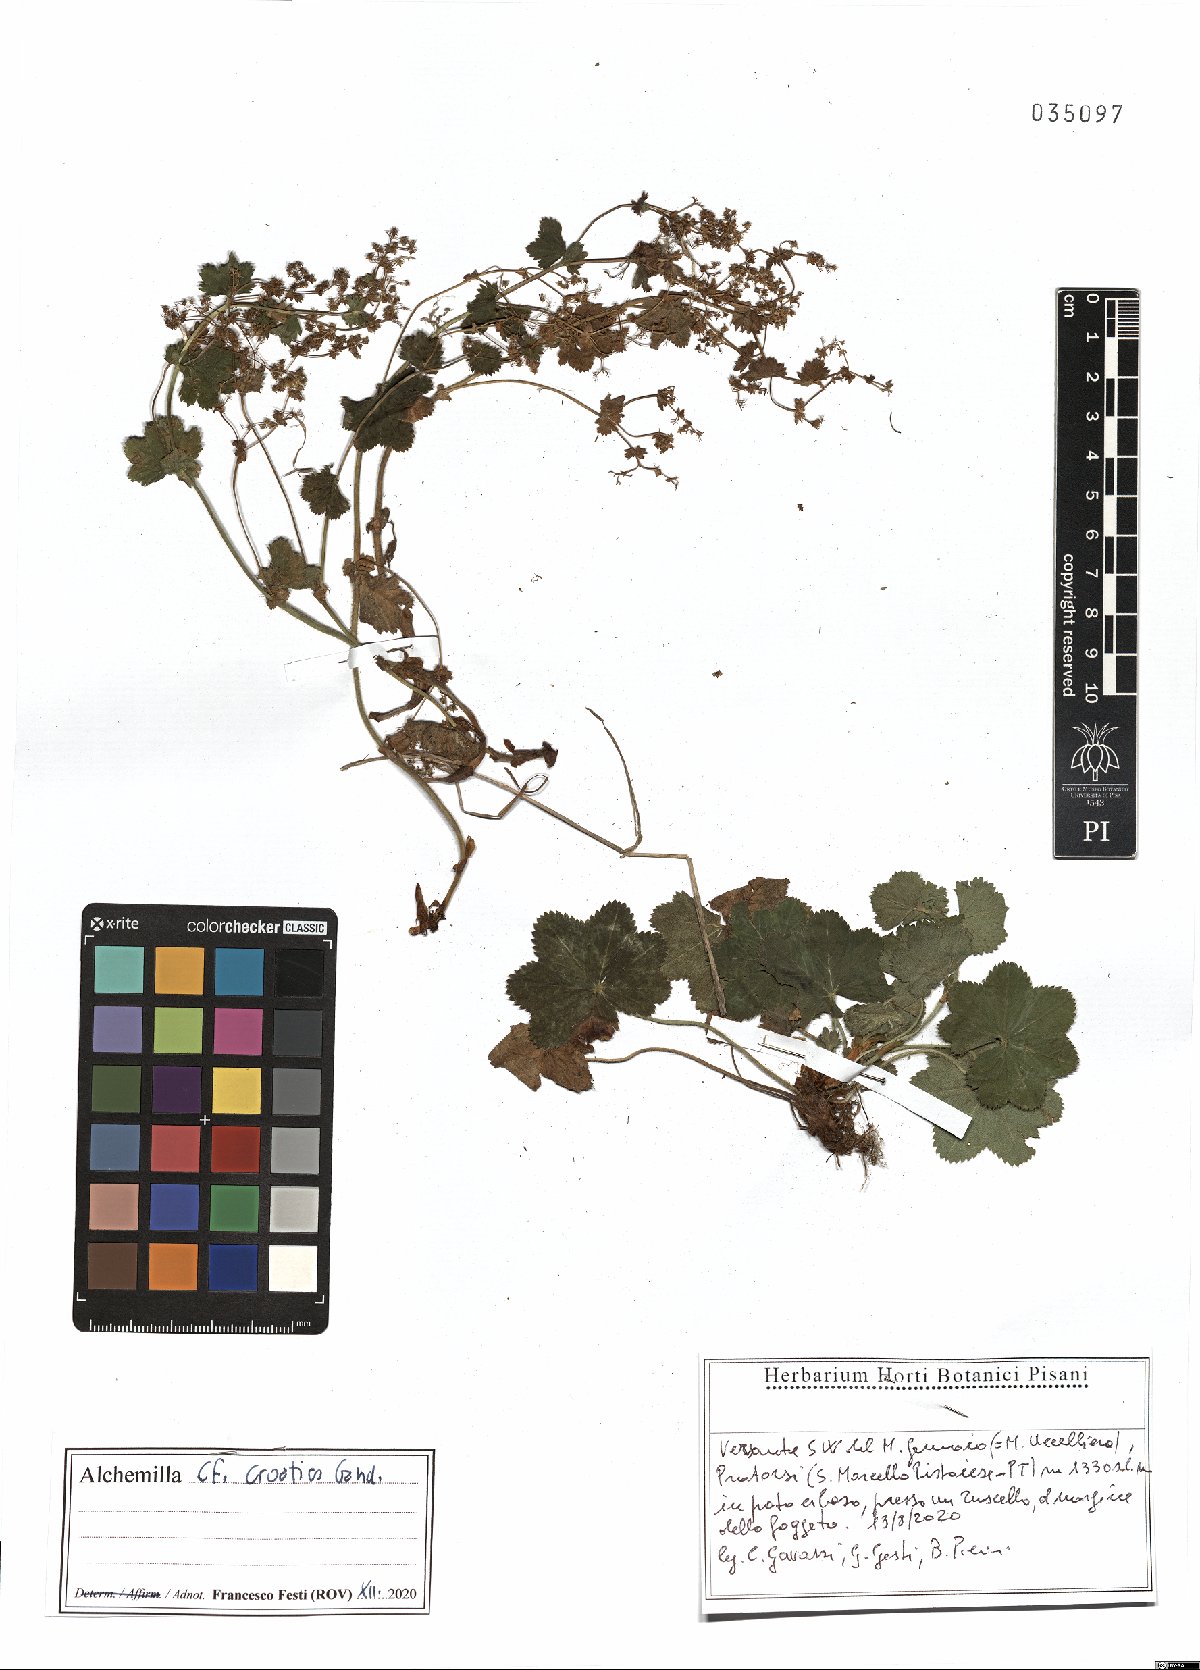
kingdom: Plantae
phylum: Tracheophyta
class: Magnoliopsida
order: Rosales
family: Rosaceae
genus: Alchemilla
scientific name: Alchemilla croatica
